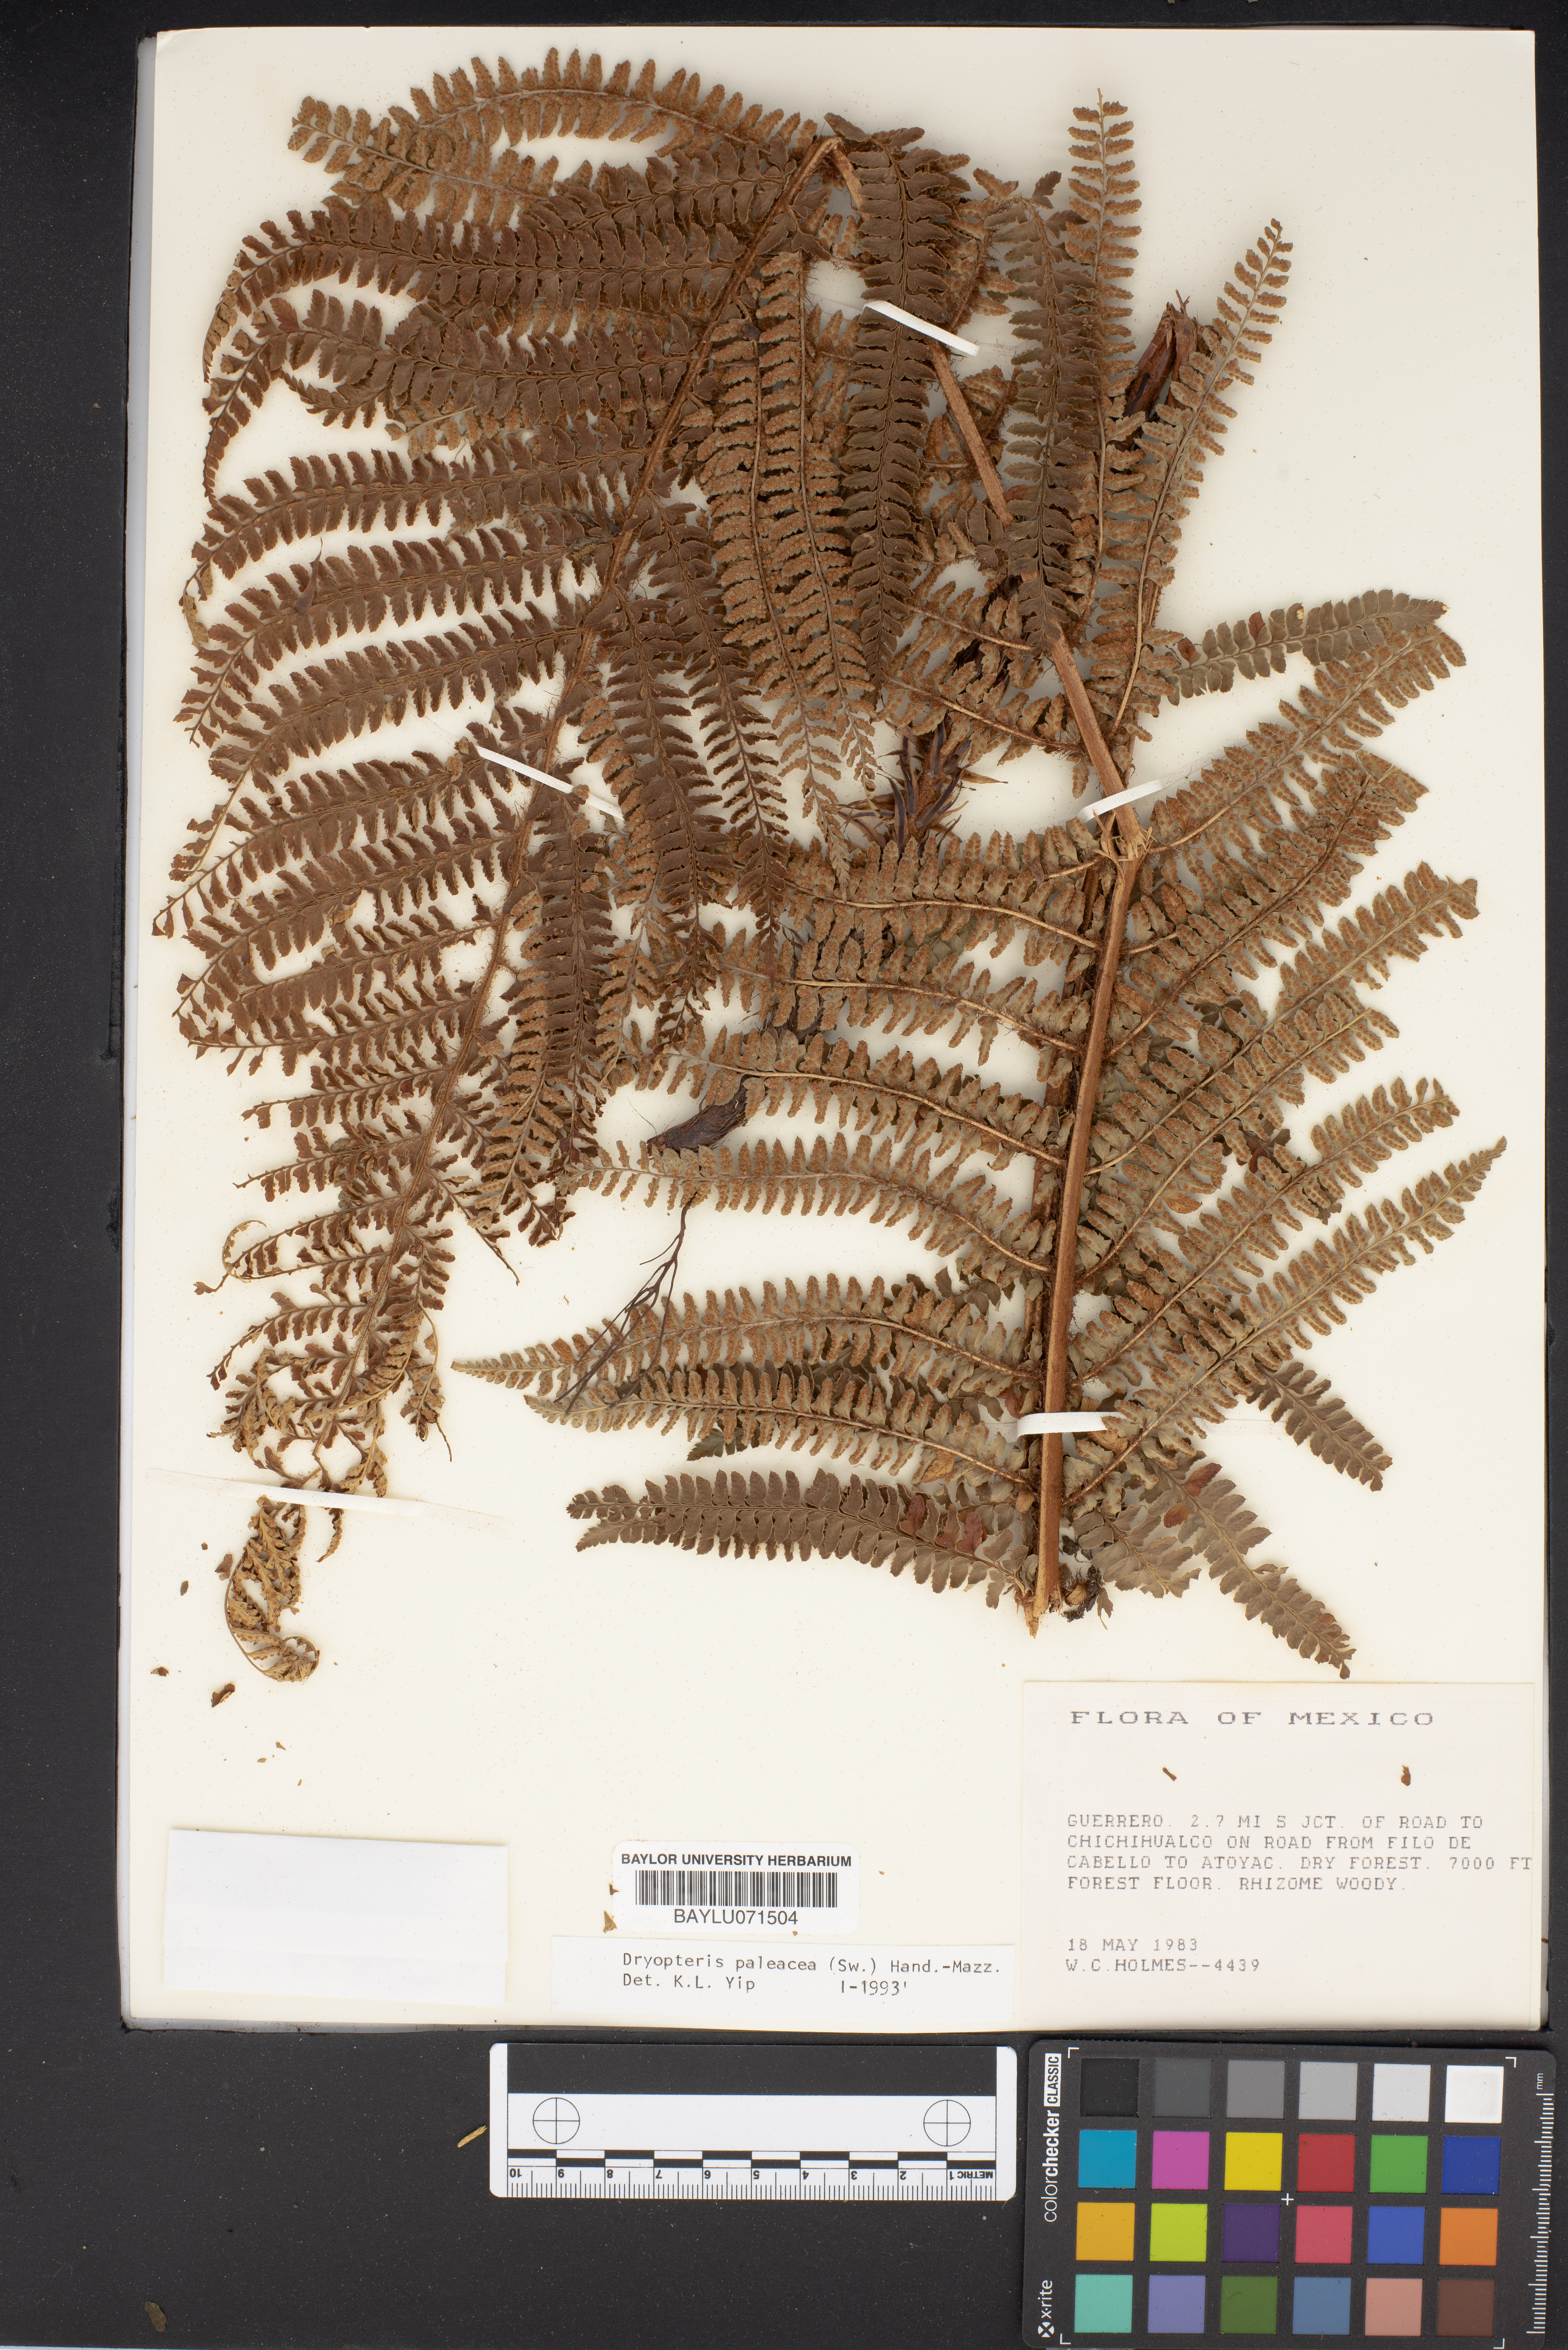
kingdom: Plantae
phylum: Tracheophyta
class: Polypodiopsida
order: Polypodiales
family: Dryopteridaceae
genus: Dryopteris
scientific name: Dryopteris wallichiana
